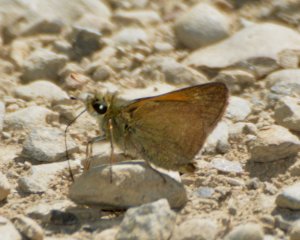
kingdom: Animalia
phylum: Arthropoda
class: Insecta
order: Lepidoptera
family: Hesperiidae
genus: Polites
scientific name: Polites themistocles
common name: Tawny-edged Skipper
